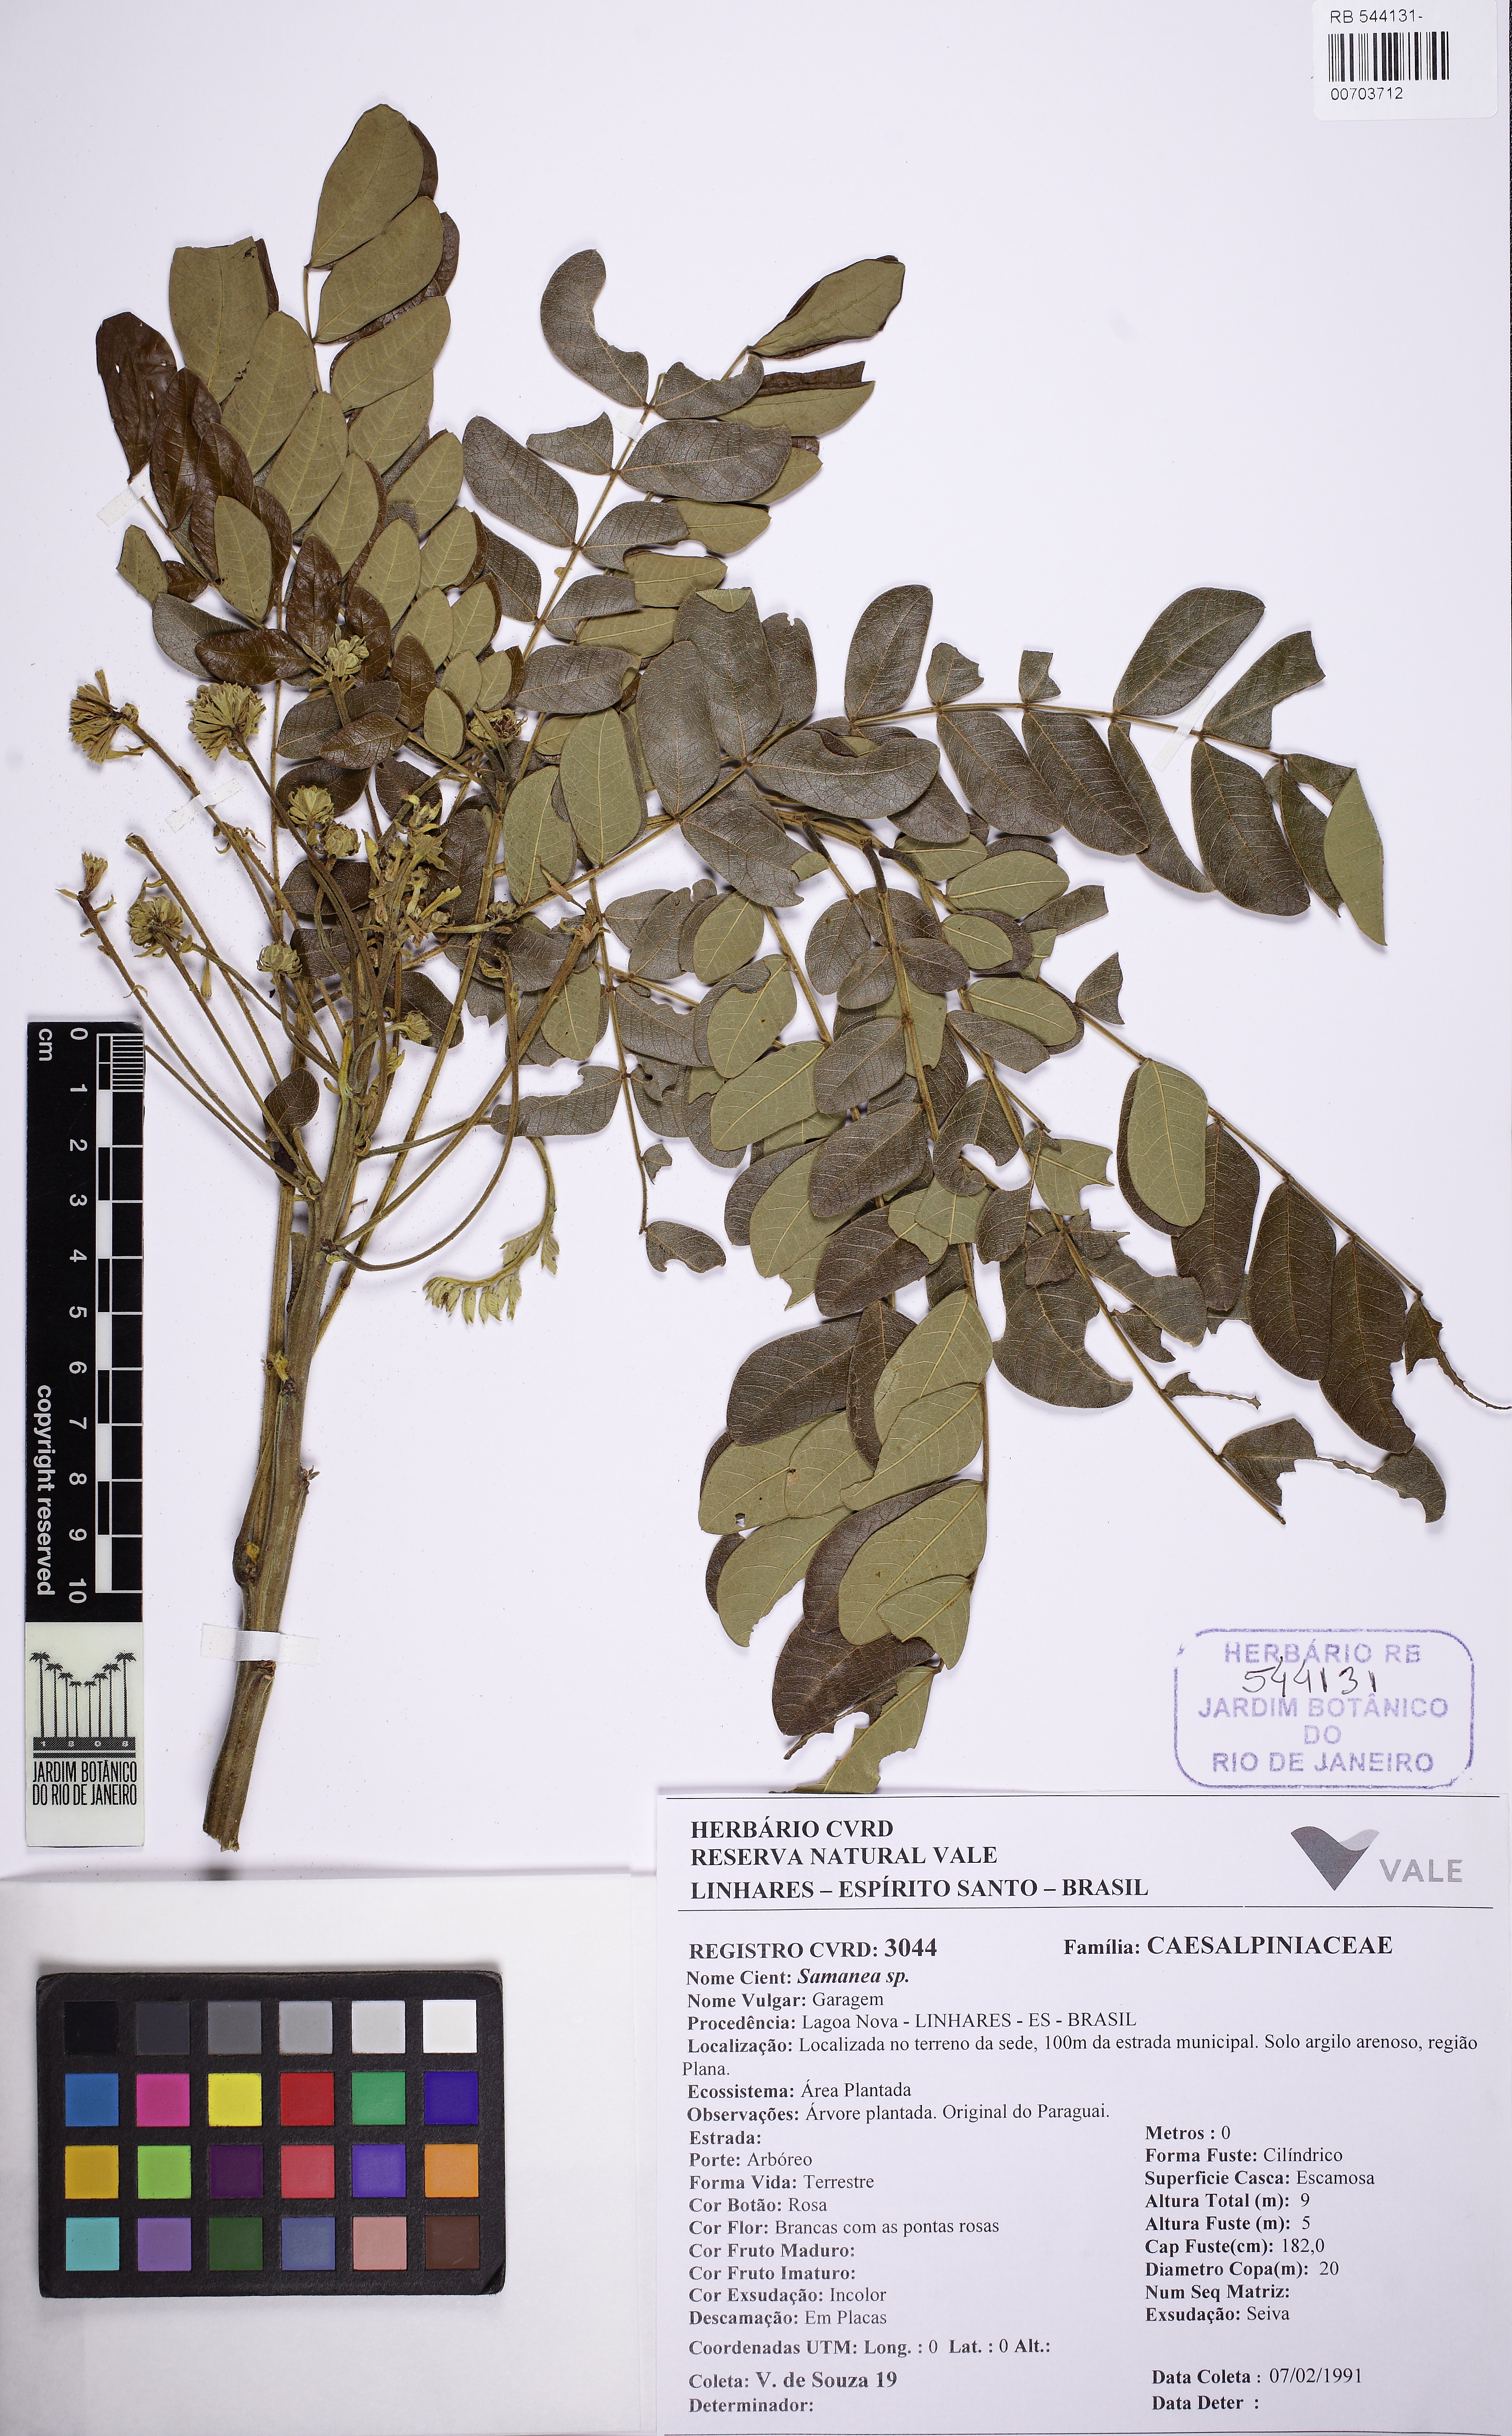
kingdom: Plantae
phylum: Tracheophyta
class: Magnoliopsida
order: Fabales
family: Fabaceae
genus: Samanea
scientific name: Samanea
